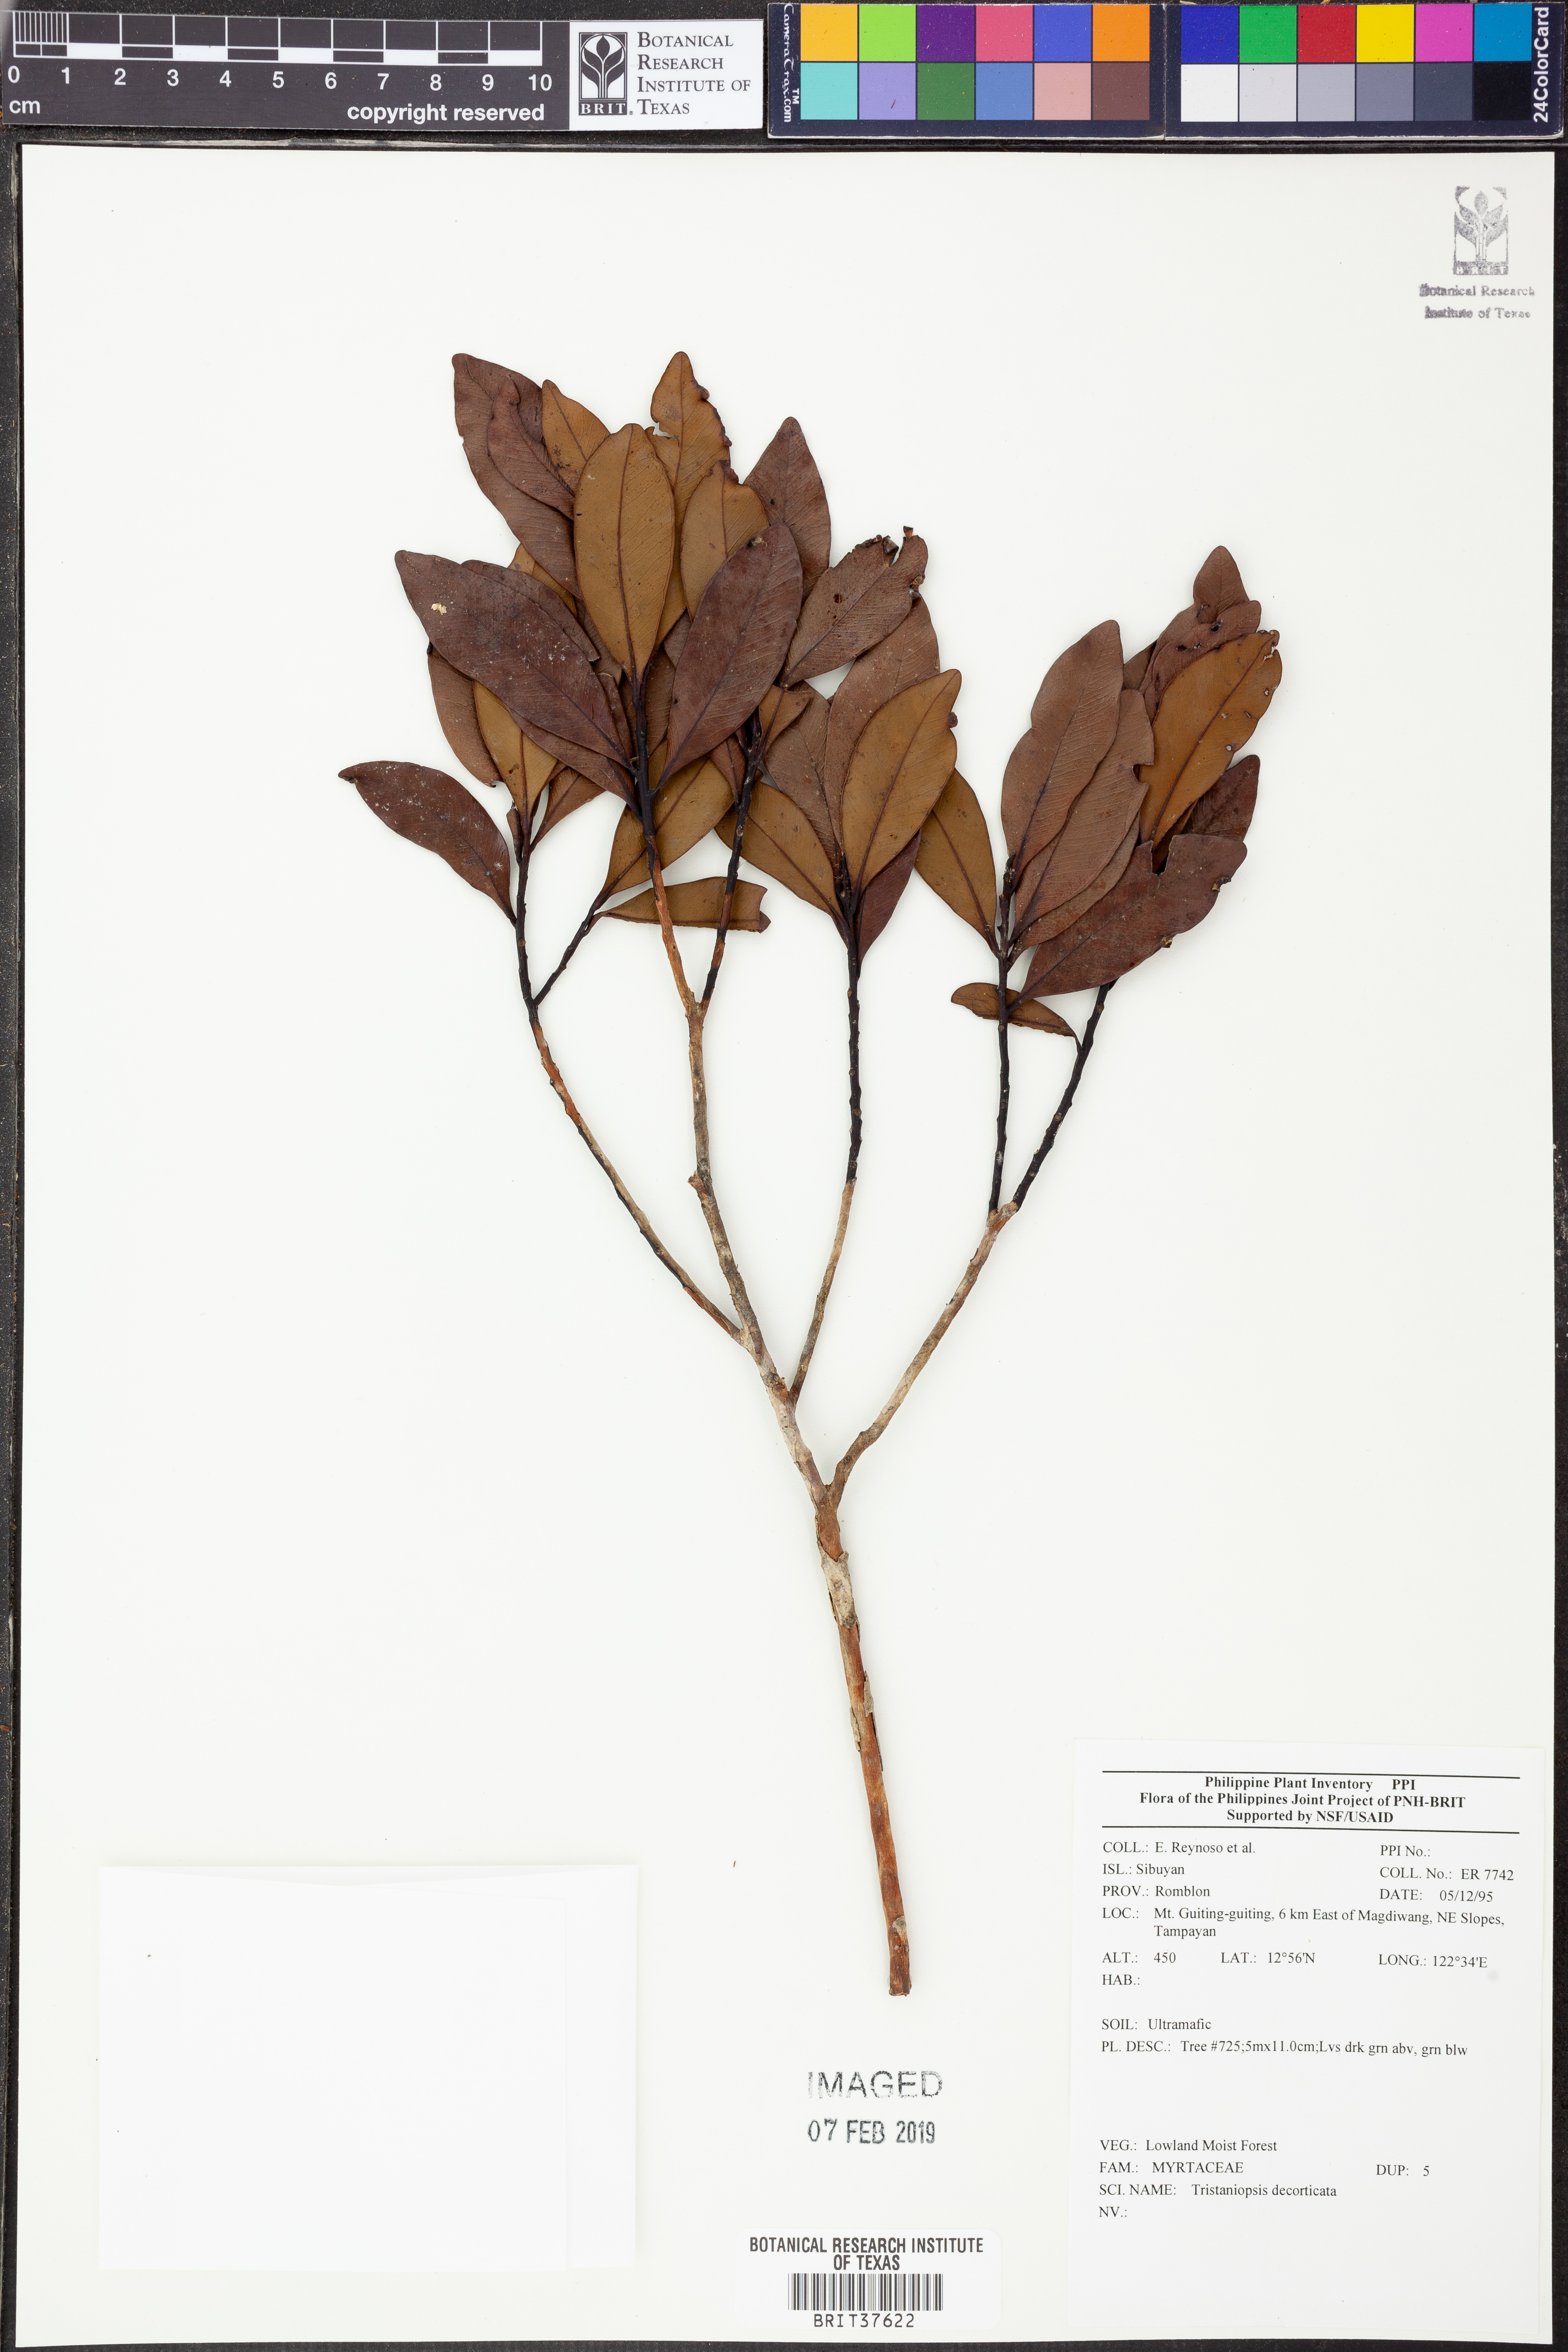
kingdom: Plantae
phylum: Tracheophyta
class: Magnoliopsida
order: Myrtales
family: Myrtaceae
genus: Tristaniopsis
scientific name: Tristaniopsis
